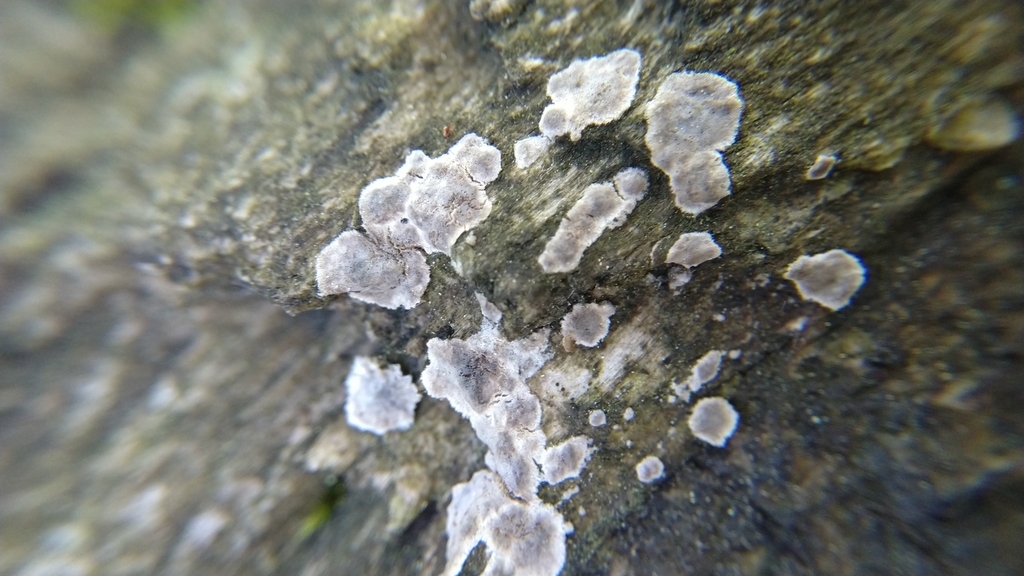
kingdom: Fungi
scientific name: Fungi
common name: Fungi
